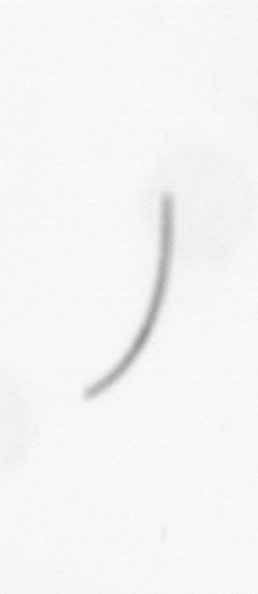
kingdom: Chromista
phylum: Ochrophyta
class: Bacillariophyceae
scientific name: Bacillariophyceae
